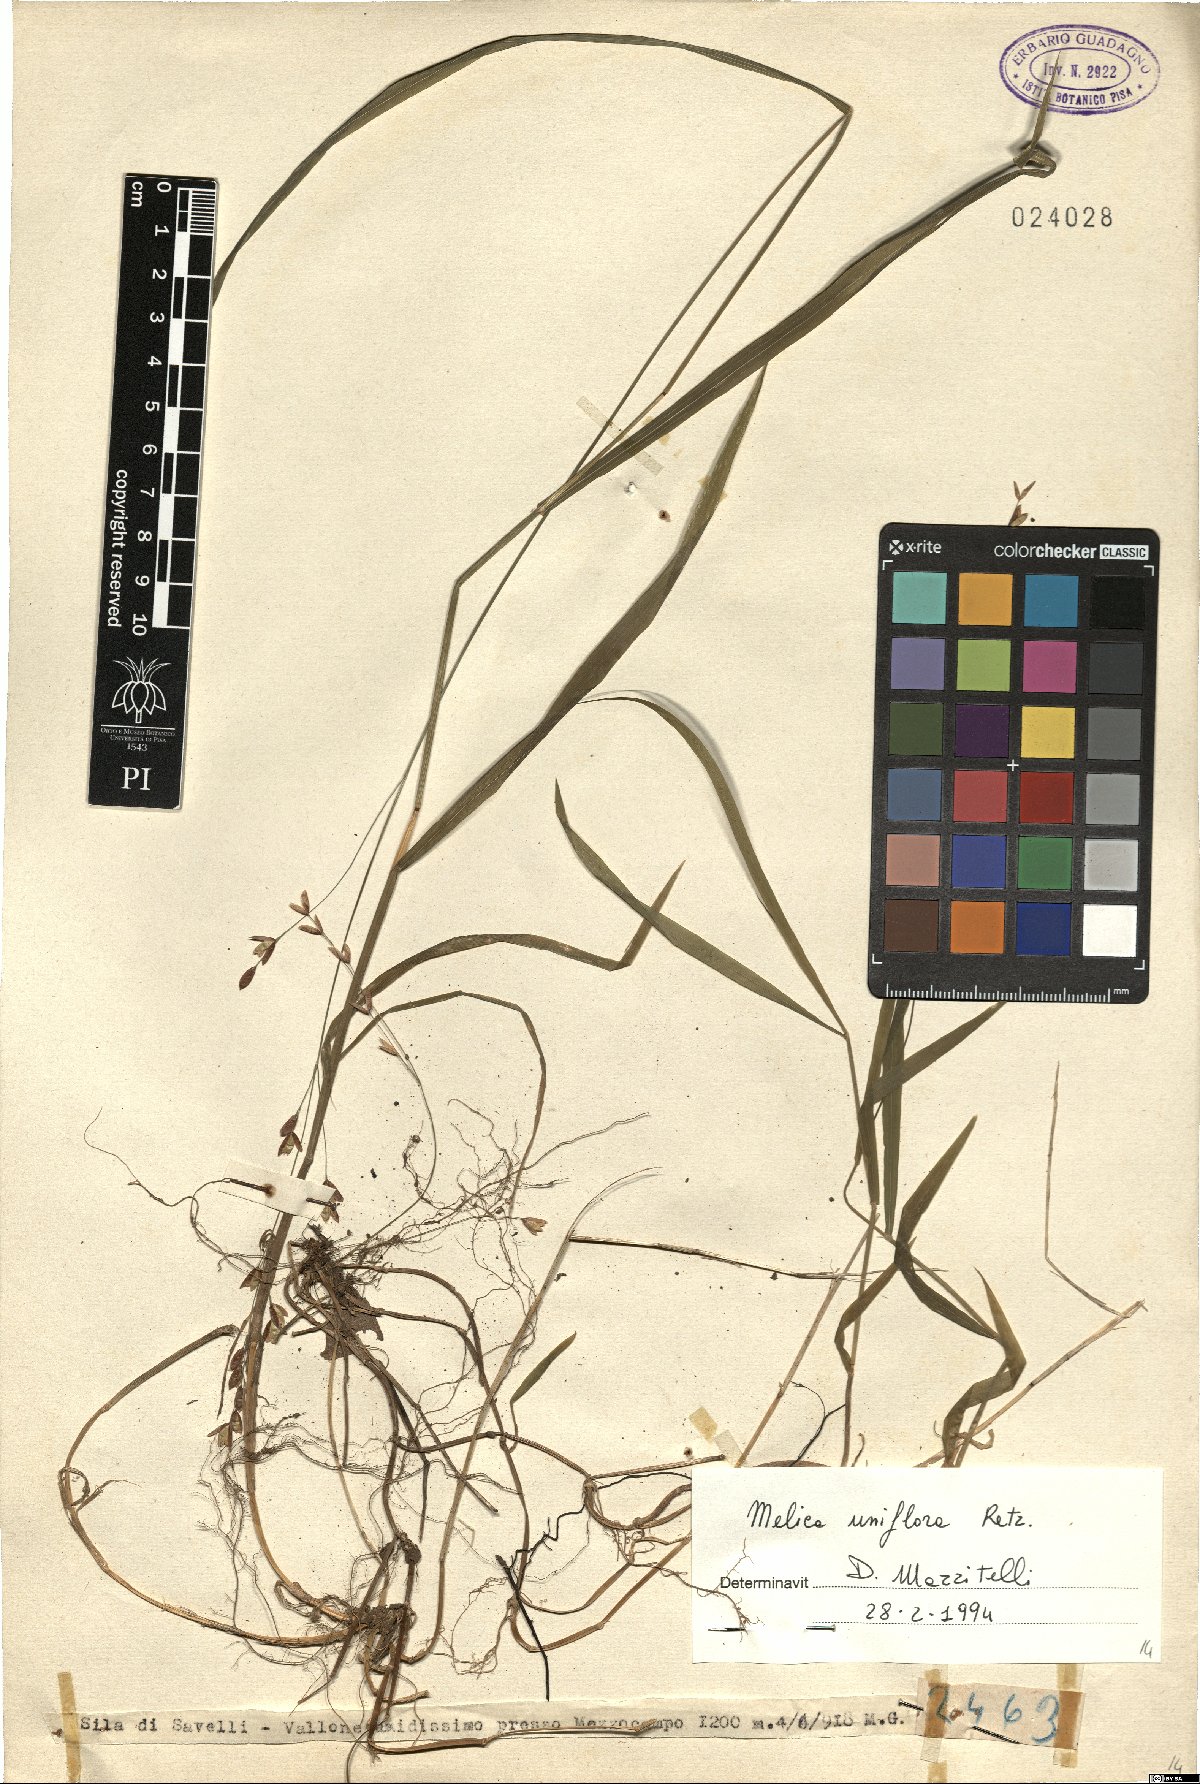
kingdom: Plantae
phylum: Tracheophyta
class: Liliopsida
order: Poales
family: Poaceae
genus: Melica
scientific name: Melica uniflora
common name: Wood melick
